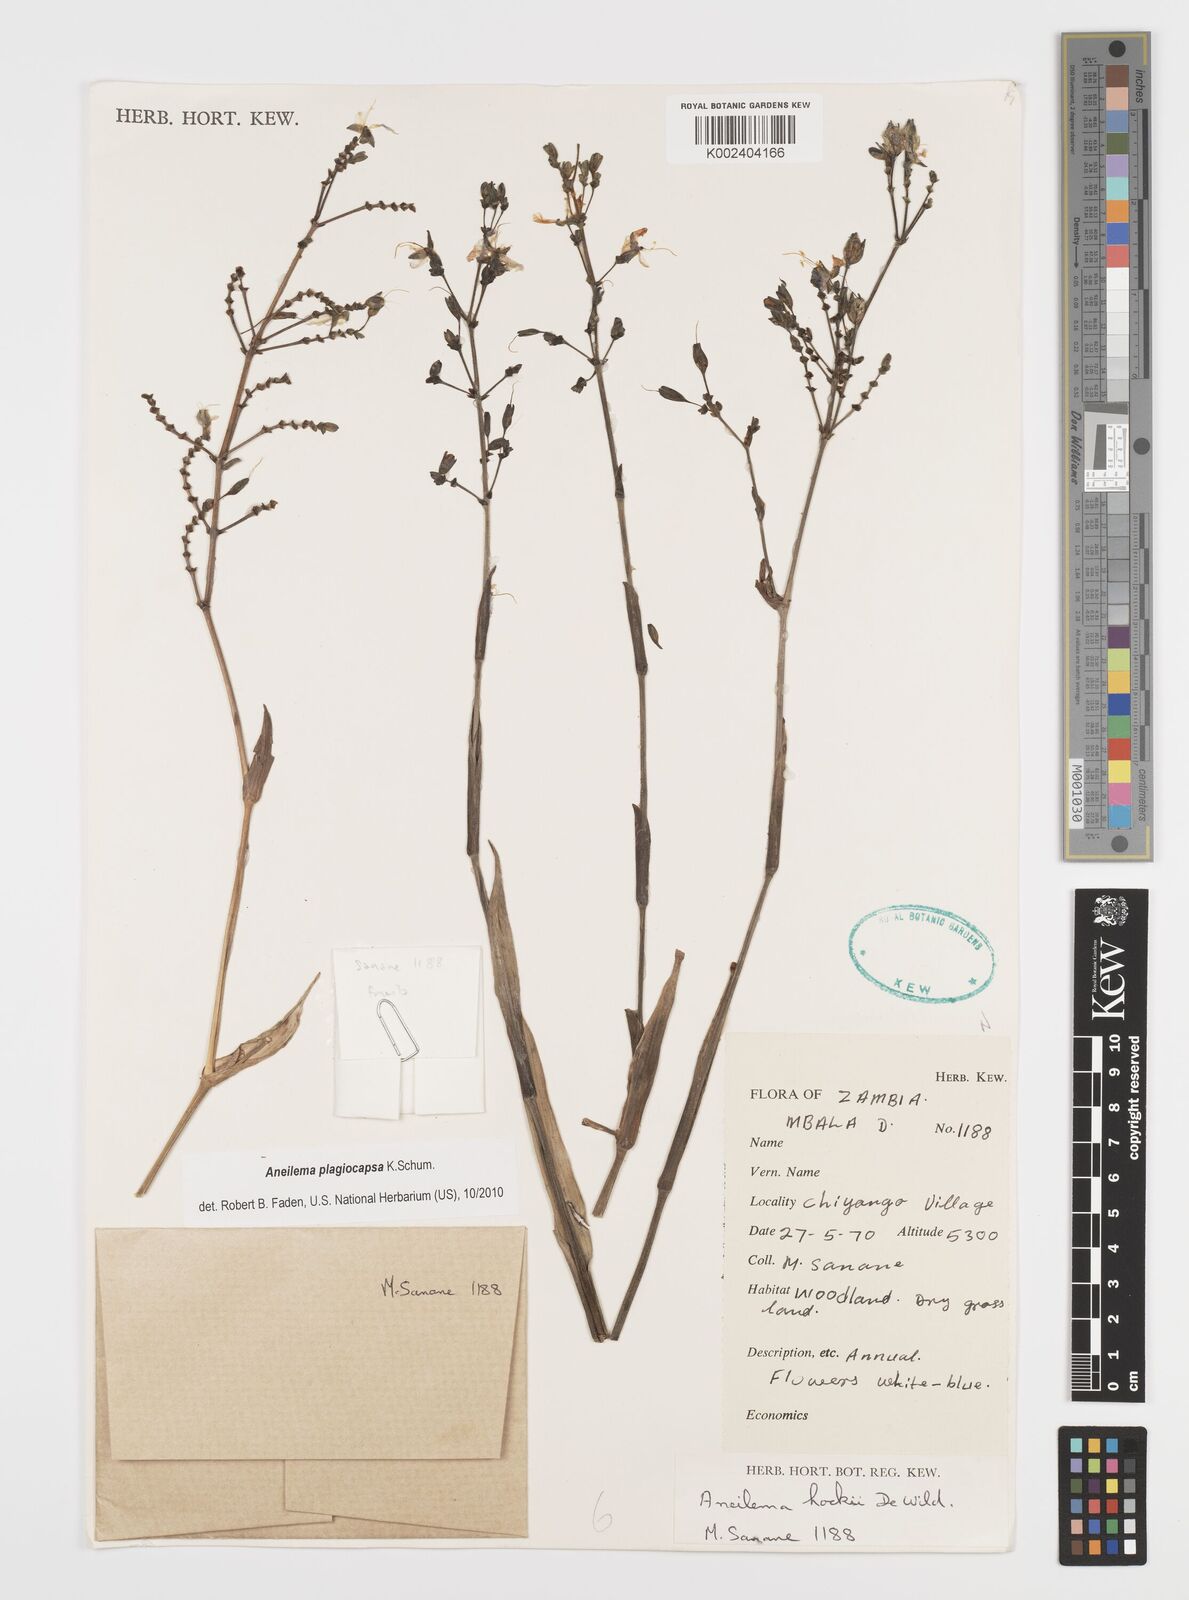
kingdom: Plantae
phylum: Tracheophyta
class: Liliopsida
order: Commelinales
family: Commelinaceae
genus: Aneilema
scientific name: Aneilema plagiocapsa
